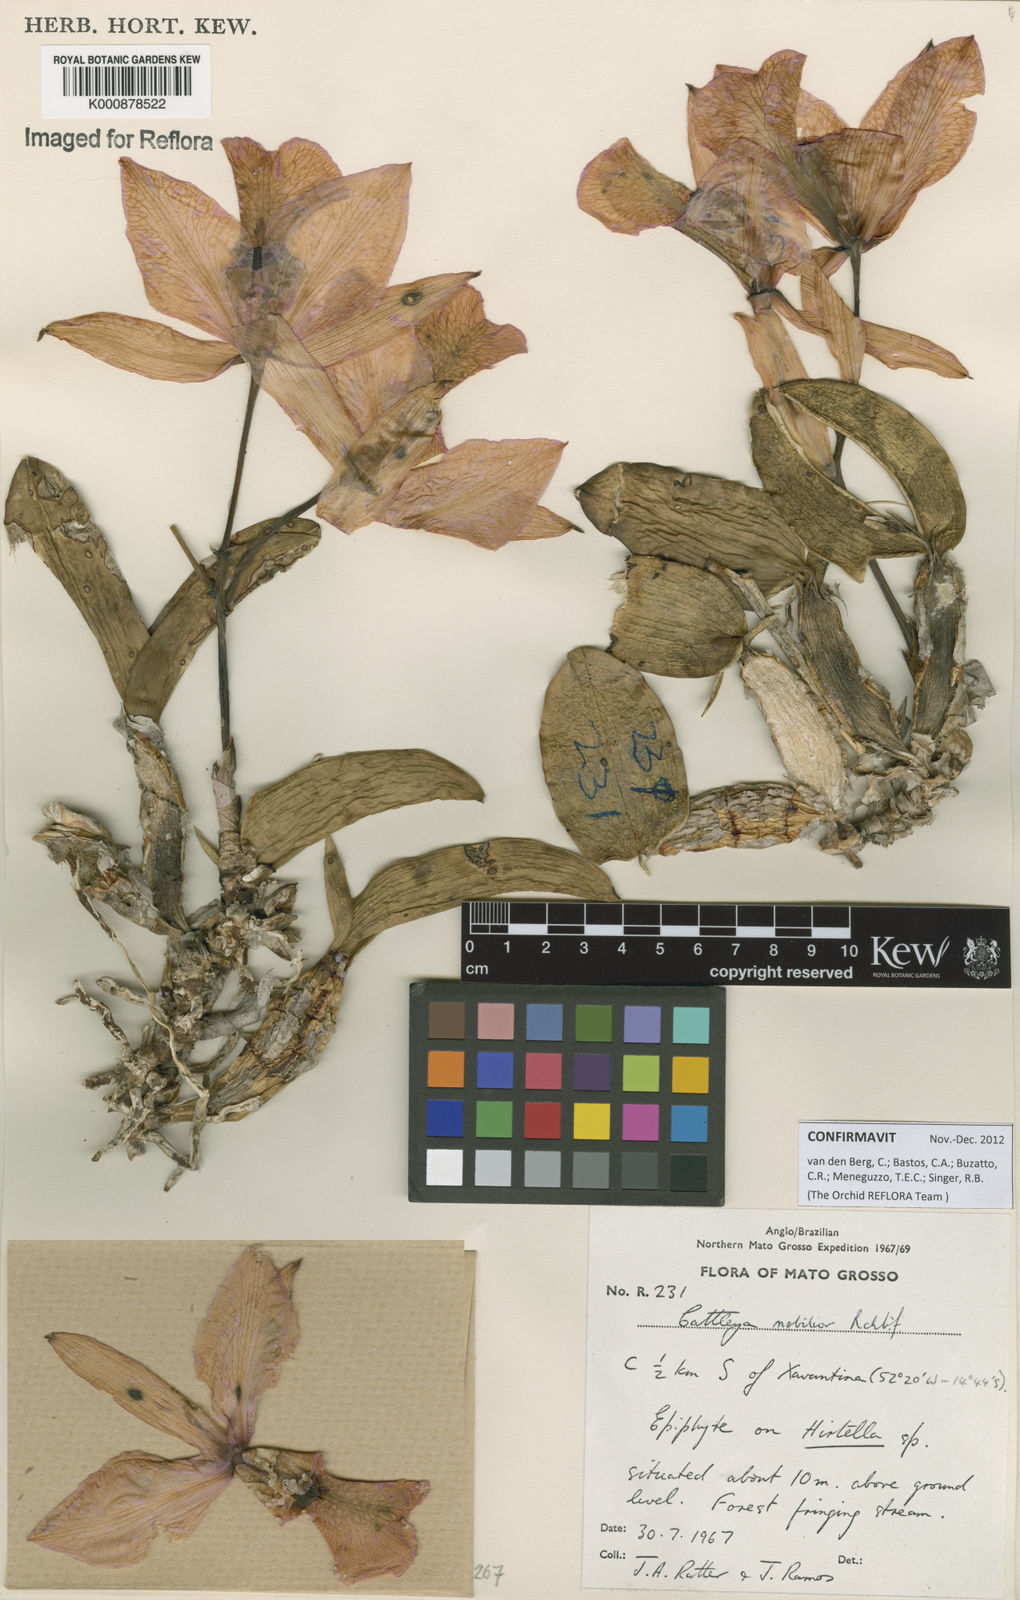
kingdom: Plantae
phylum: Tracheophyta
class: Liliopsida
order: Asparagales
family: Orchidaceae
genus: Cattleya
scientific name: Cattleya nobilior
